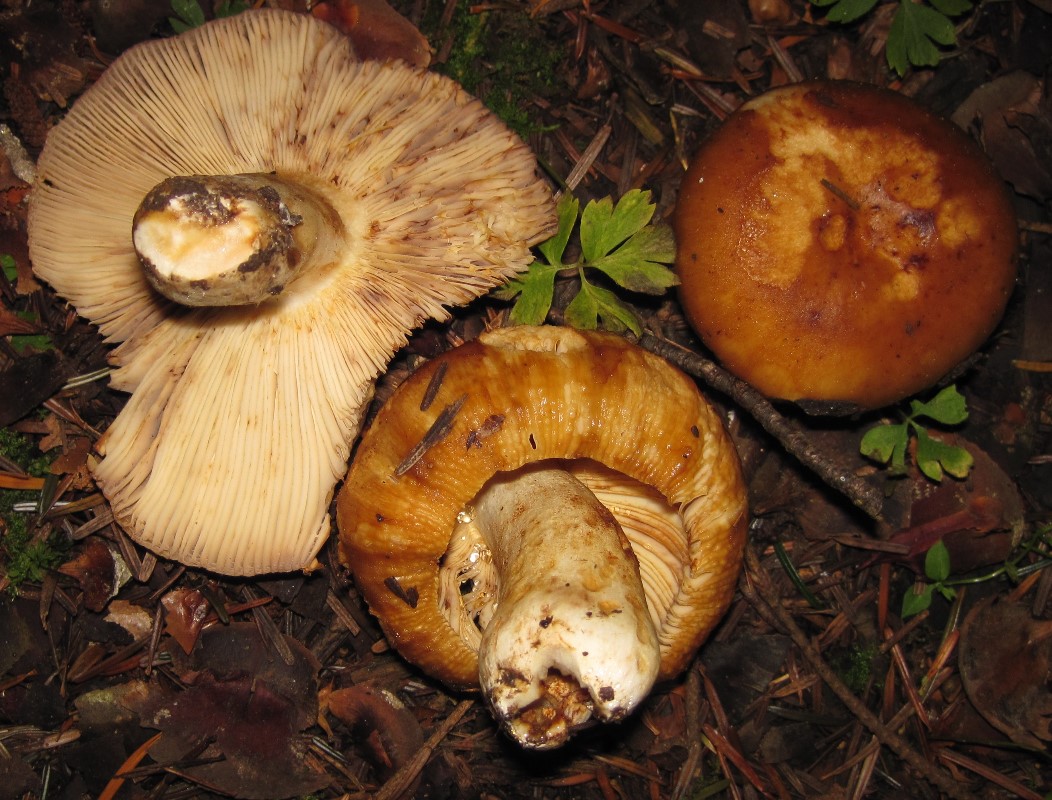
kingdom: Fungi
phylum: Basidiomycota
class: Agaricomycetes
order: Russulales
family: Russulaceae
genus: Russula
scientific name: Russula foetens
